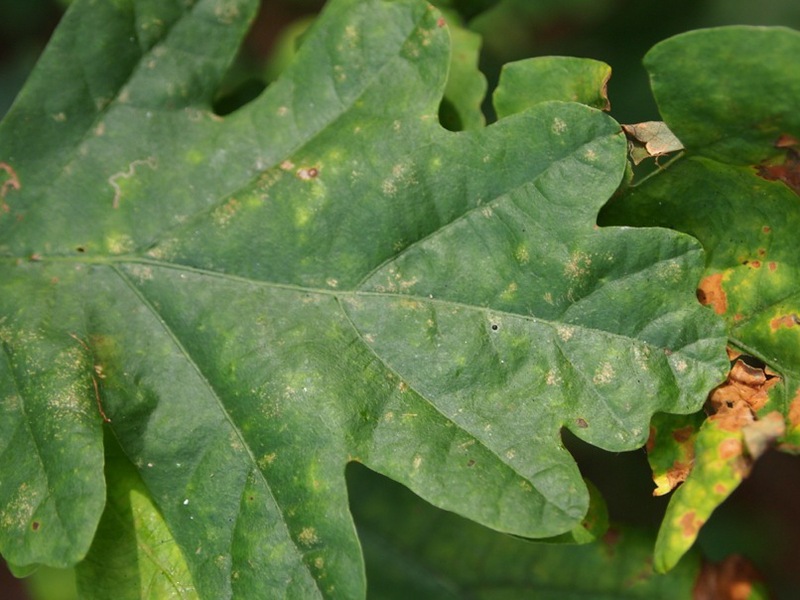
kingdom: Animalia
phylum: Arthropoda
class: Insecta
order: Hemiptera
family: Triozidae
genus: Trioza
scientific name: Trioza remota
